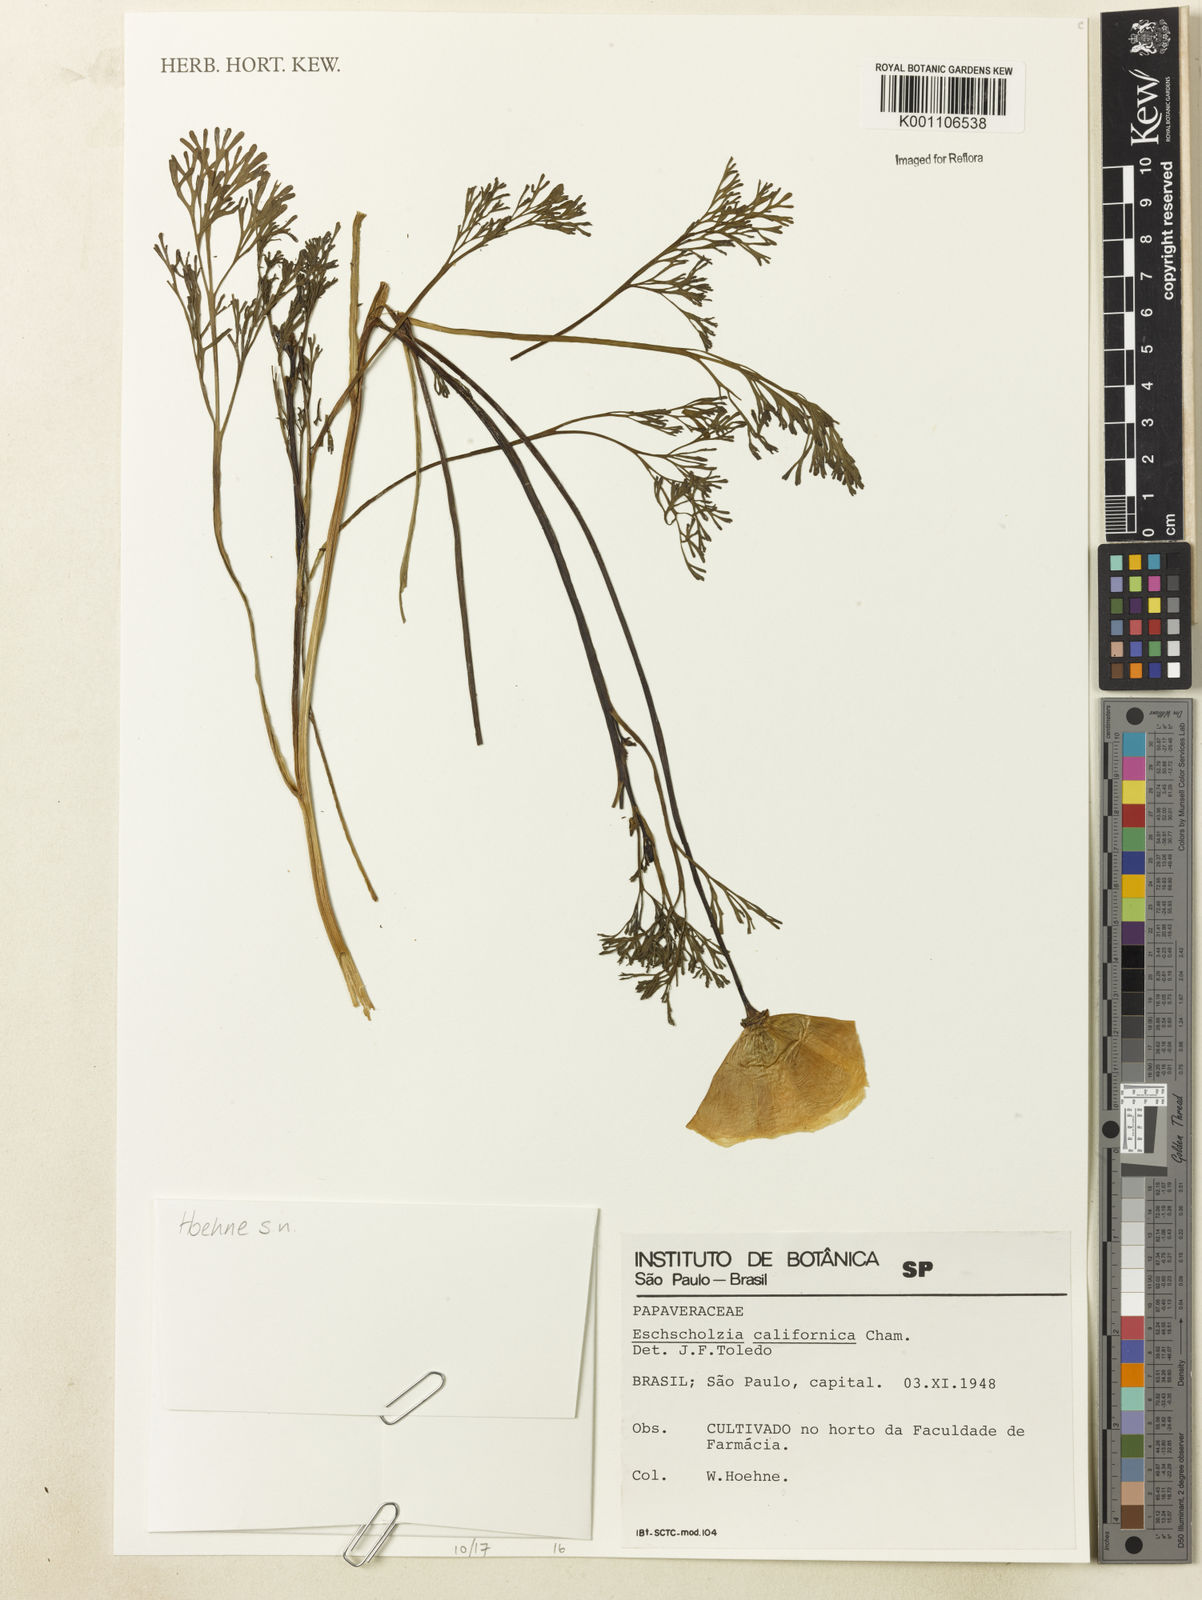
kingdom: Plantae
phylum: Tracheophyta
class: Magnoliopsida
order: Ranunculales
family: Papaveraceae
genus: Eschscholzia
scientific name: Eschscholzia californica
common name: California poppy
